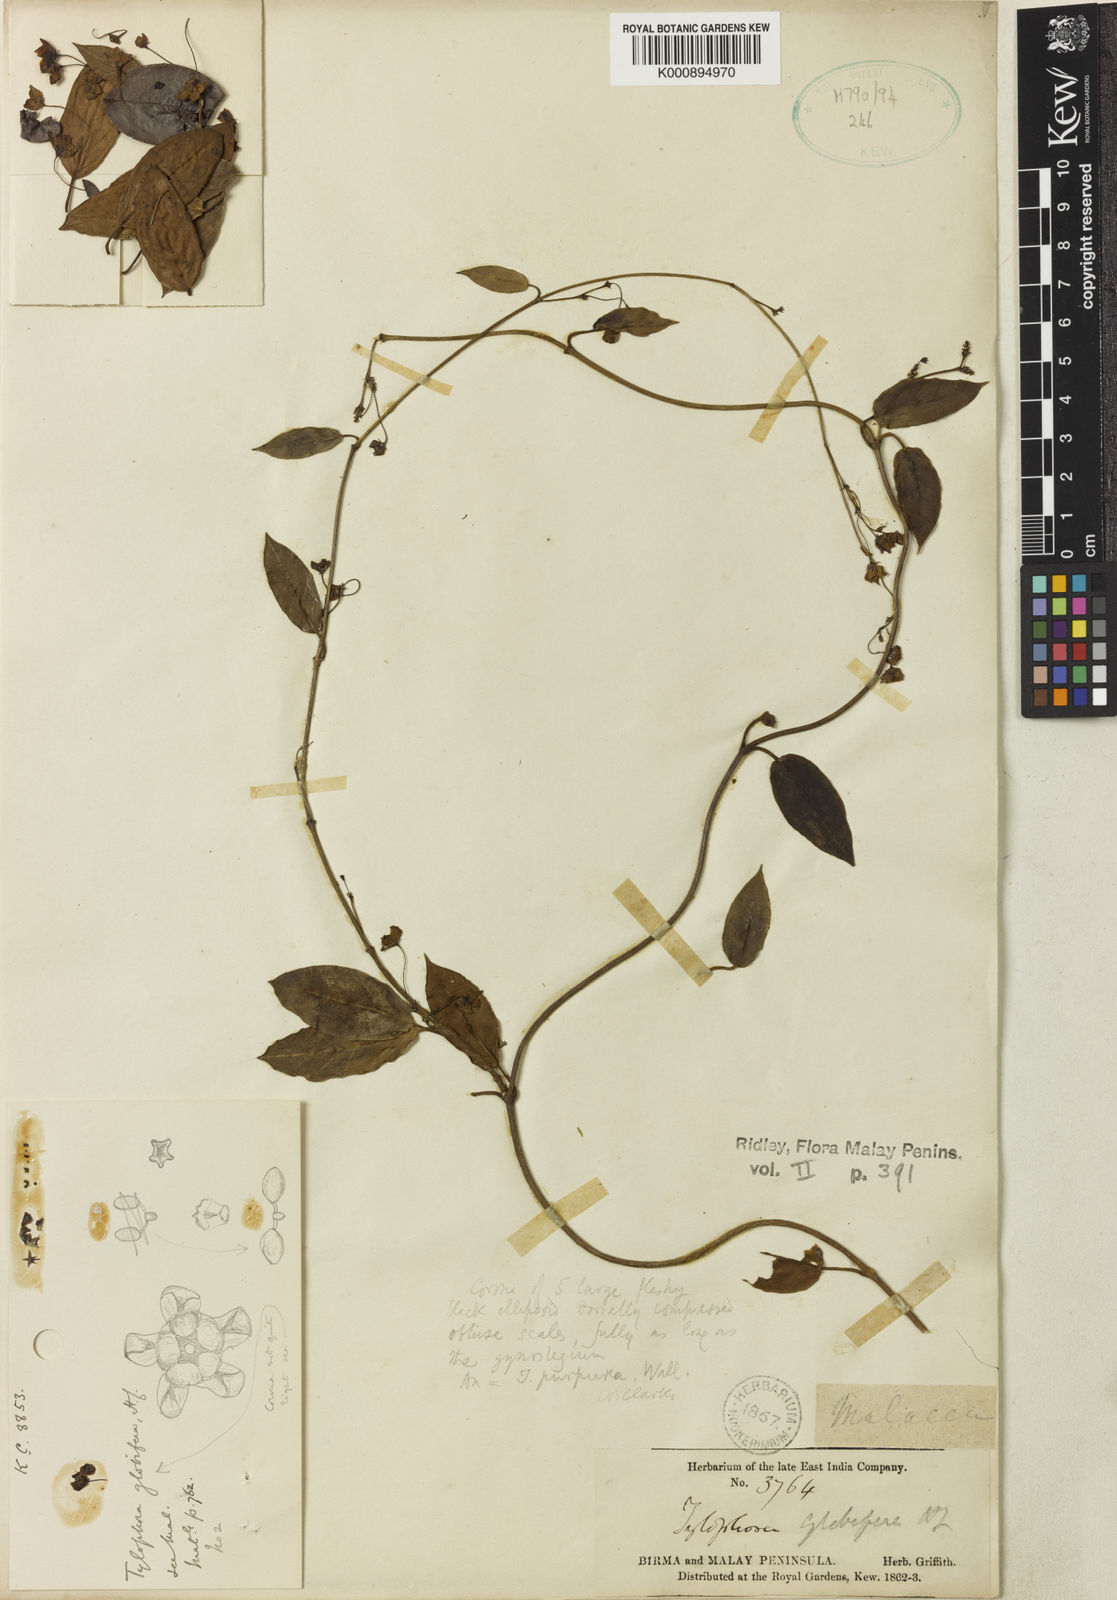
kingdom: Plantae
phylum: Tracheophyta
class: Magnoliopsida
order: Gentianales
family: Apocynaceae
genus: Vincetoxicum
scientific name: Vincetoxicum globiferum
